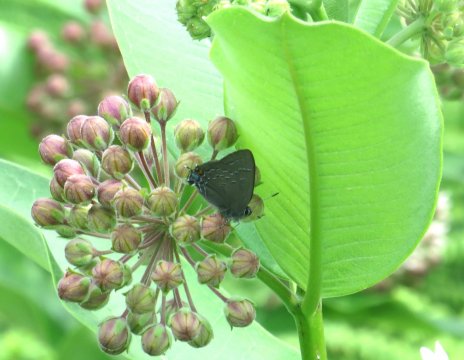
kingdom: Animalia
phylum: Arthropoda
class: Insecta
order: Lepidoptera
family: Lycaenidae
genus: Satyrium
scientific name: Satyrium calanus
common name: Banded Hairstreak
